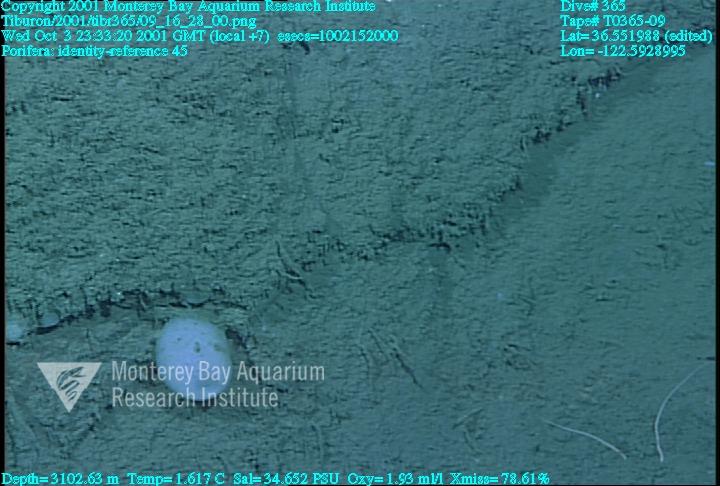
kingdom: Animalia
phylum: Porifera
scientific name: Porifera
